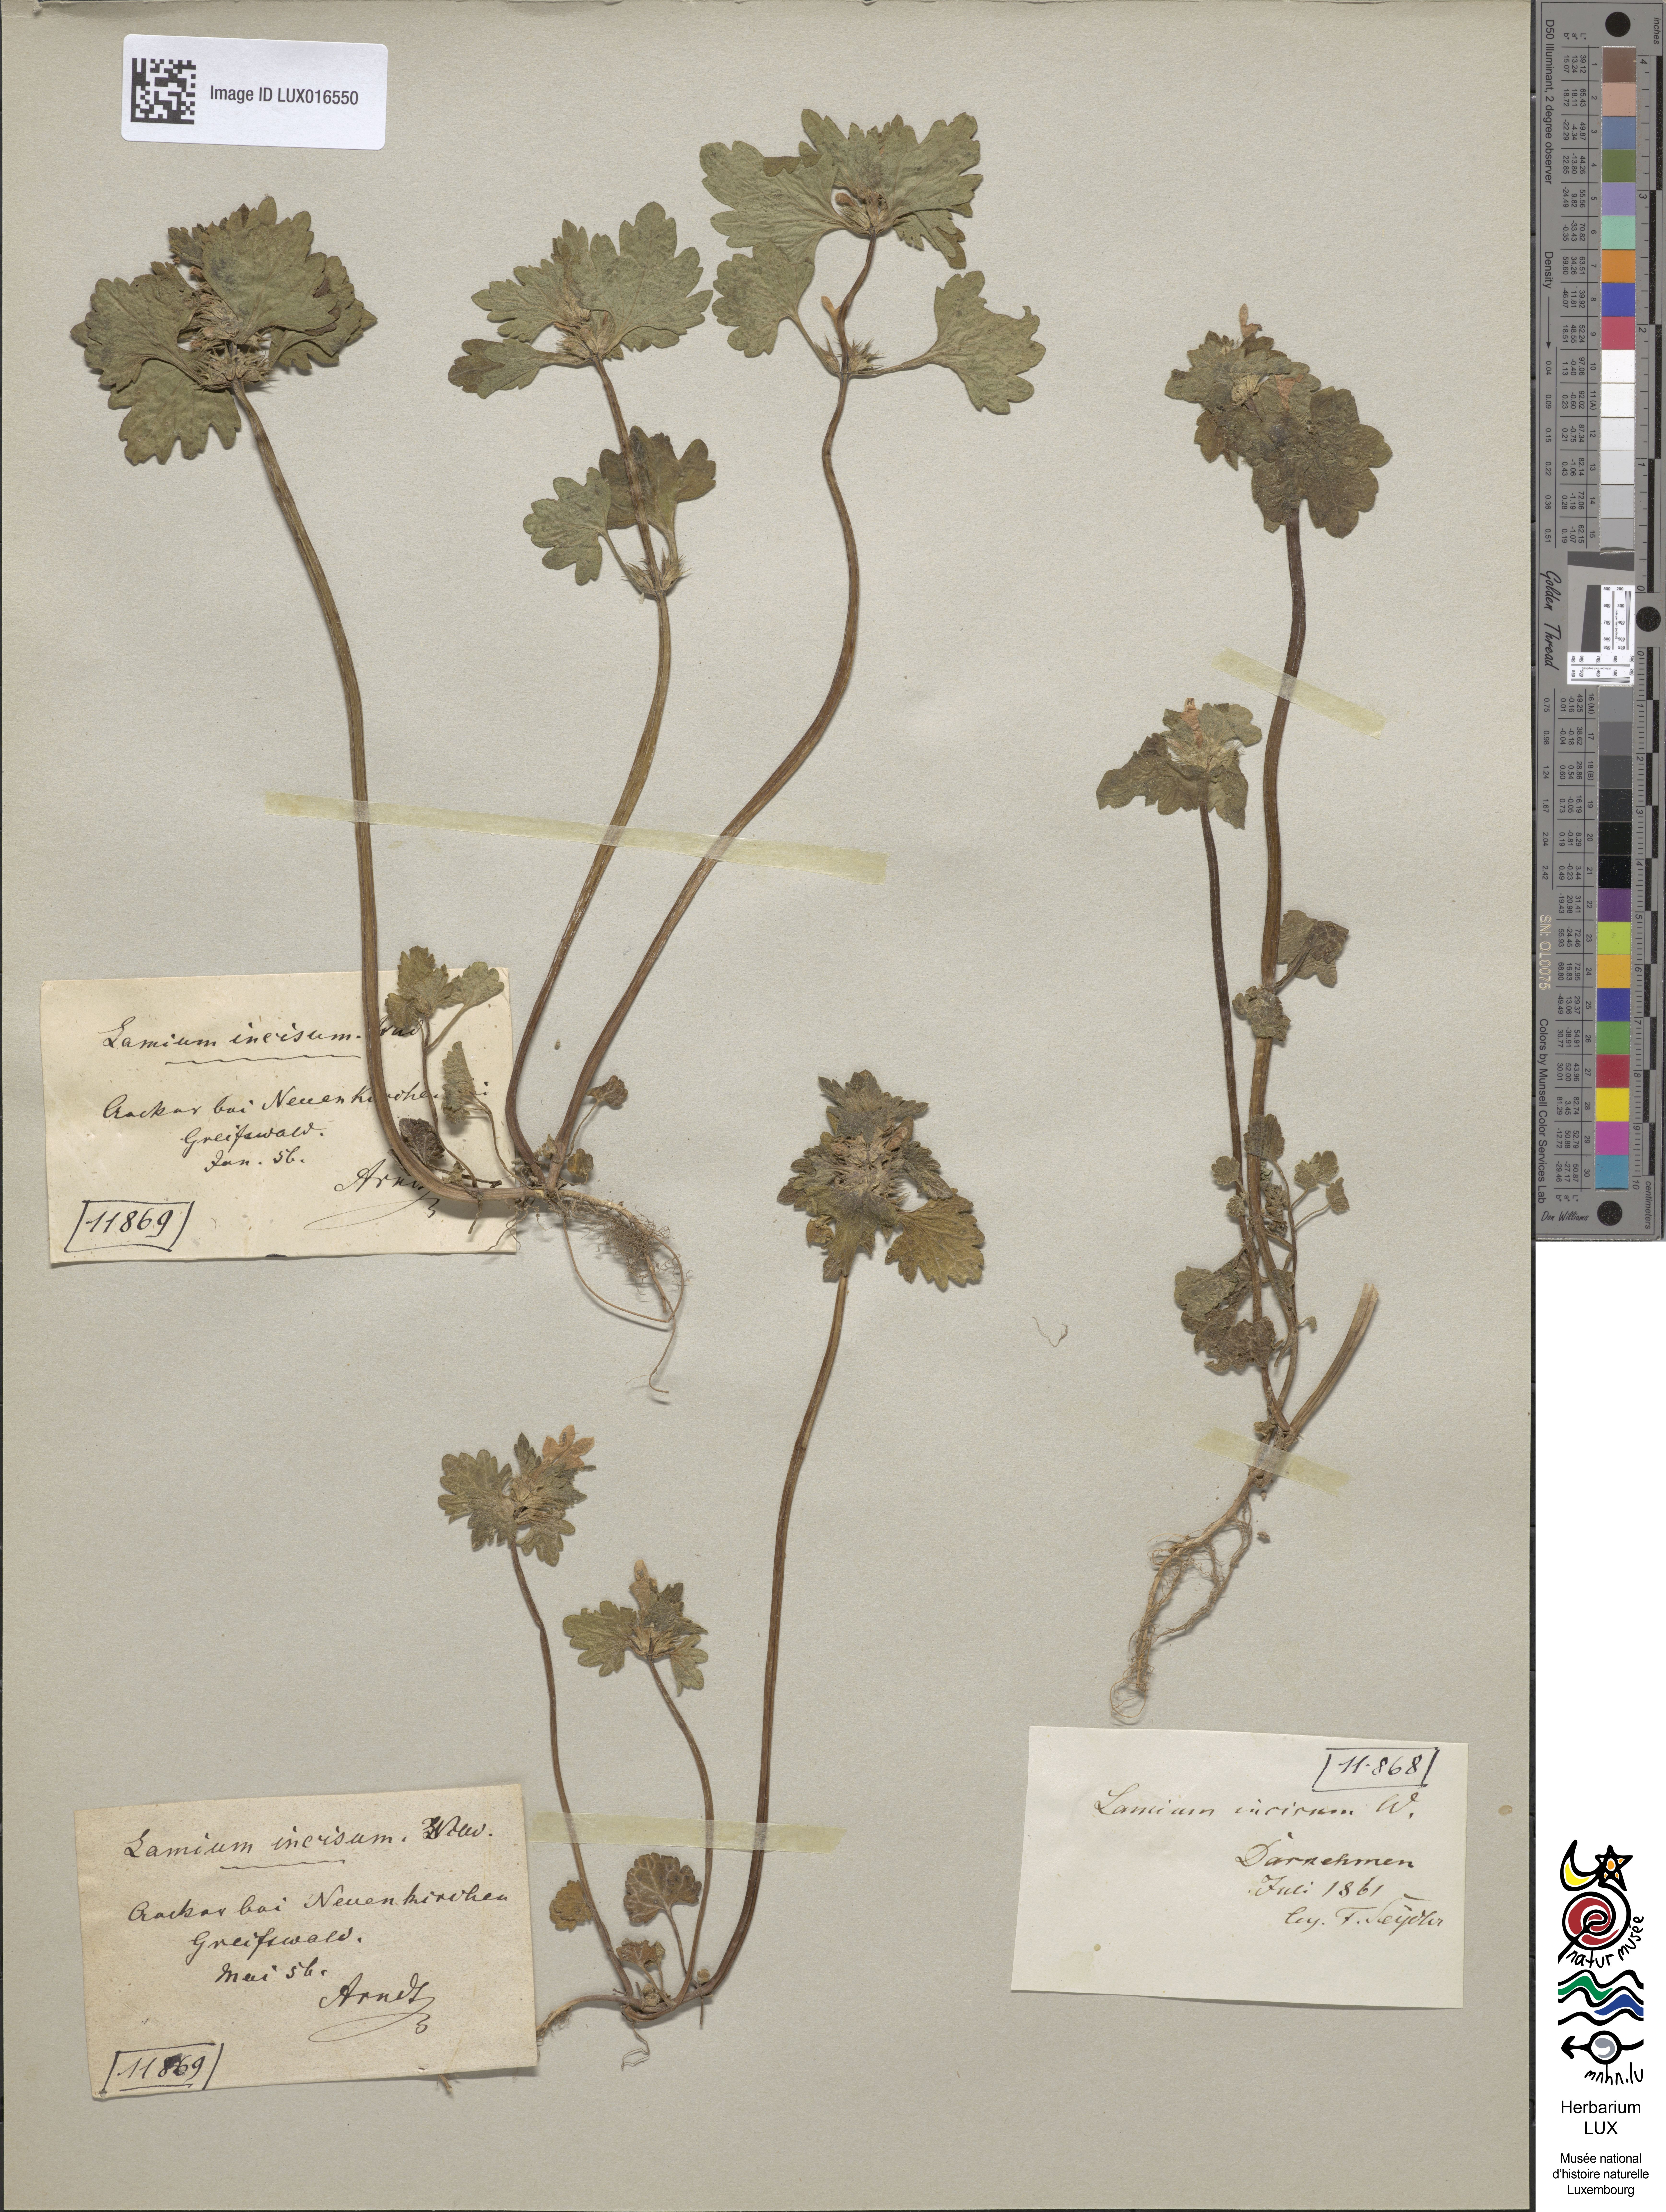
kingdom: Plantae
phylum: Tracheophyta
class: Magnoliopsida
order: Lamiales
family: Lamiaceae
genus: Lamium
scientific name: Lamium hybridum
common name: Cut-leaved dead-nettle
